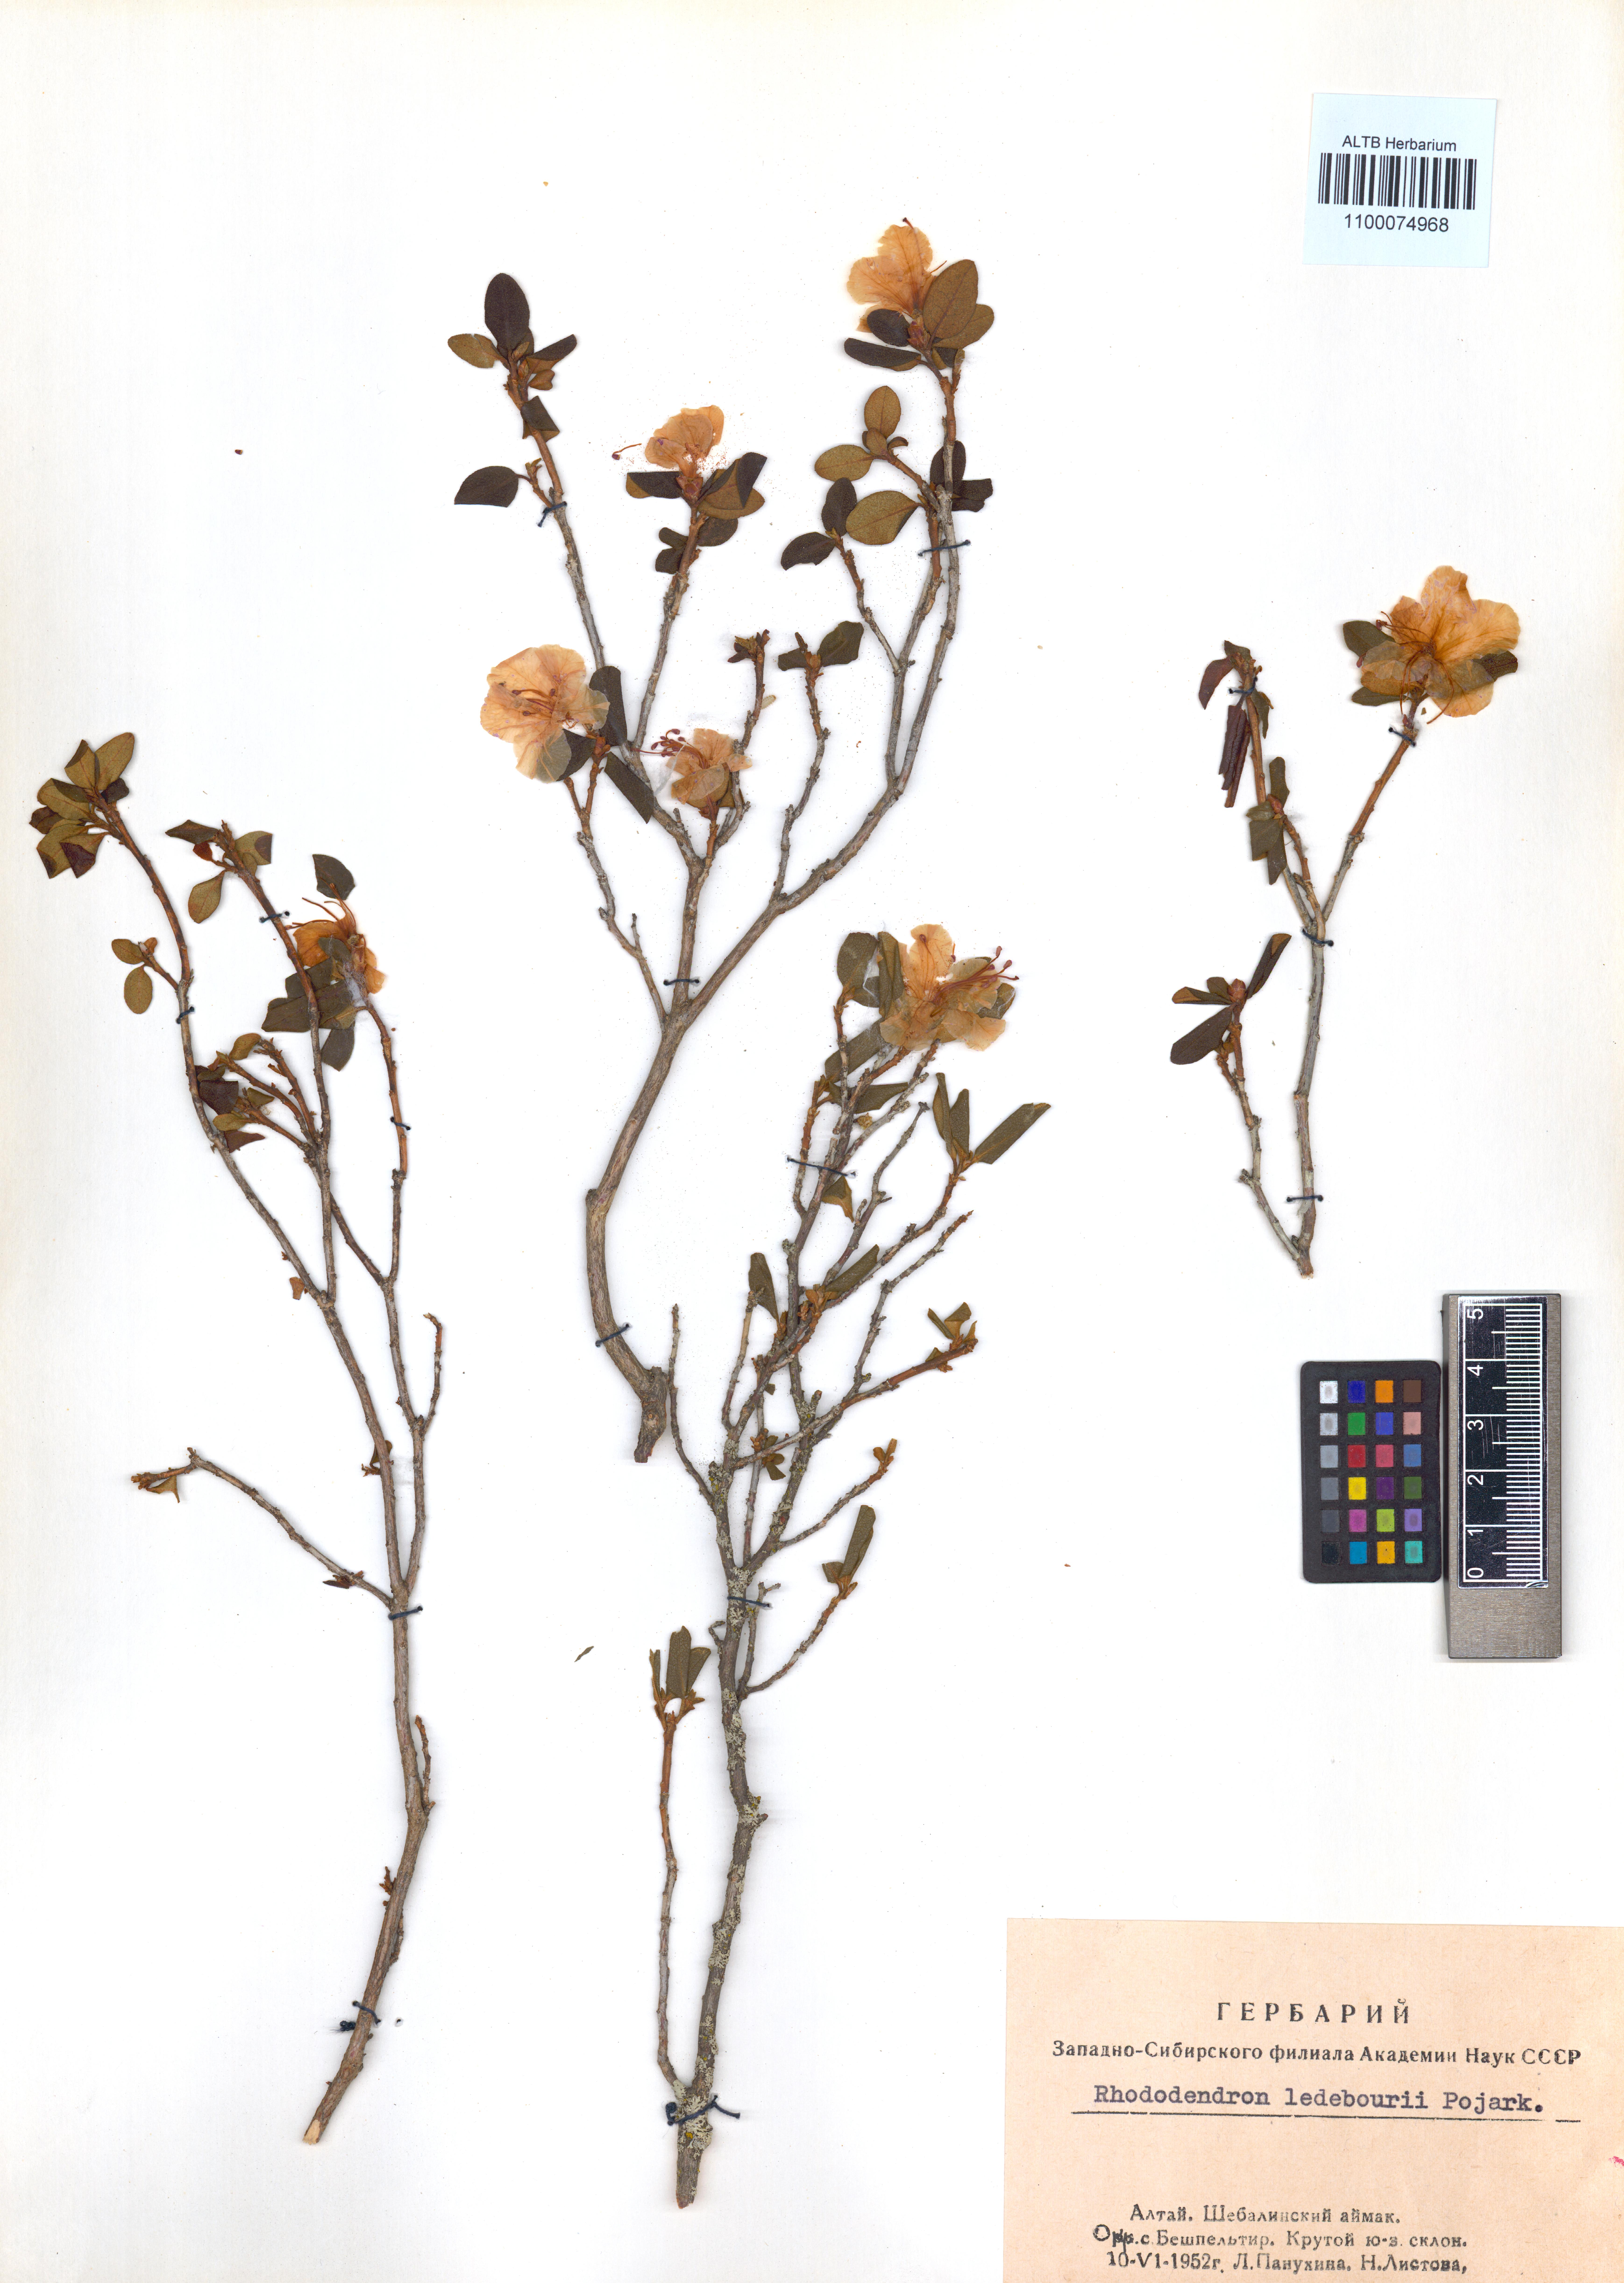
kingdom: Plantae
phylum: Tracheophyta
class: Magnoliopsida
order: Ericales
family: Ericaceae
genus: Rhododendron
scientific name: Rhododendron dauricum
